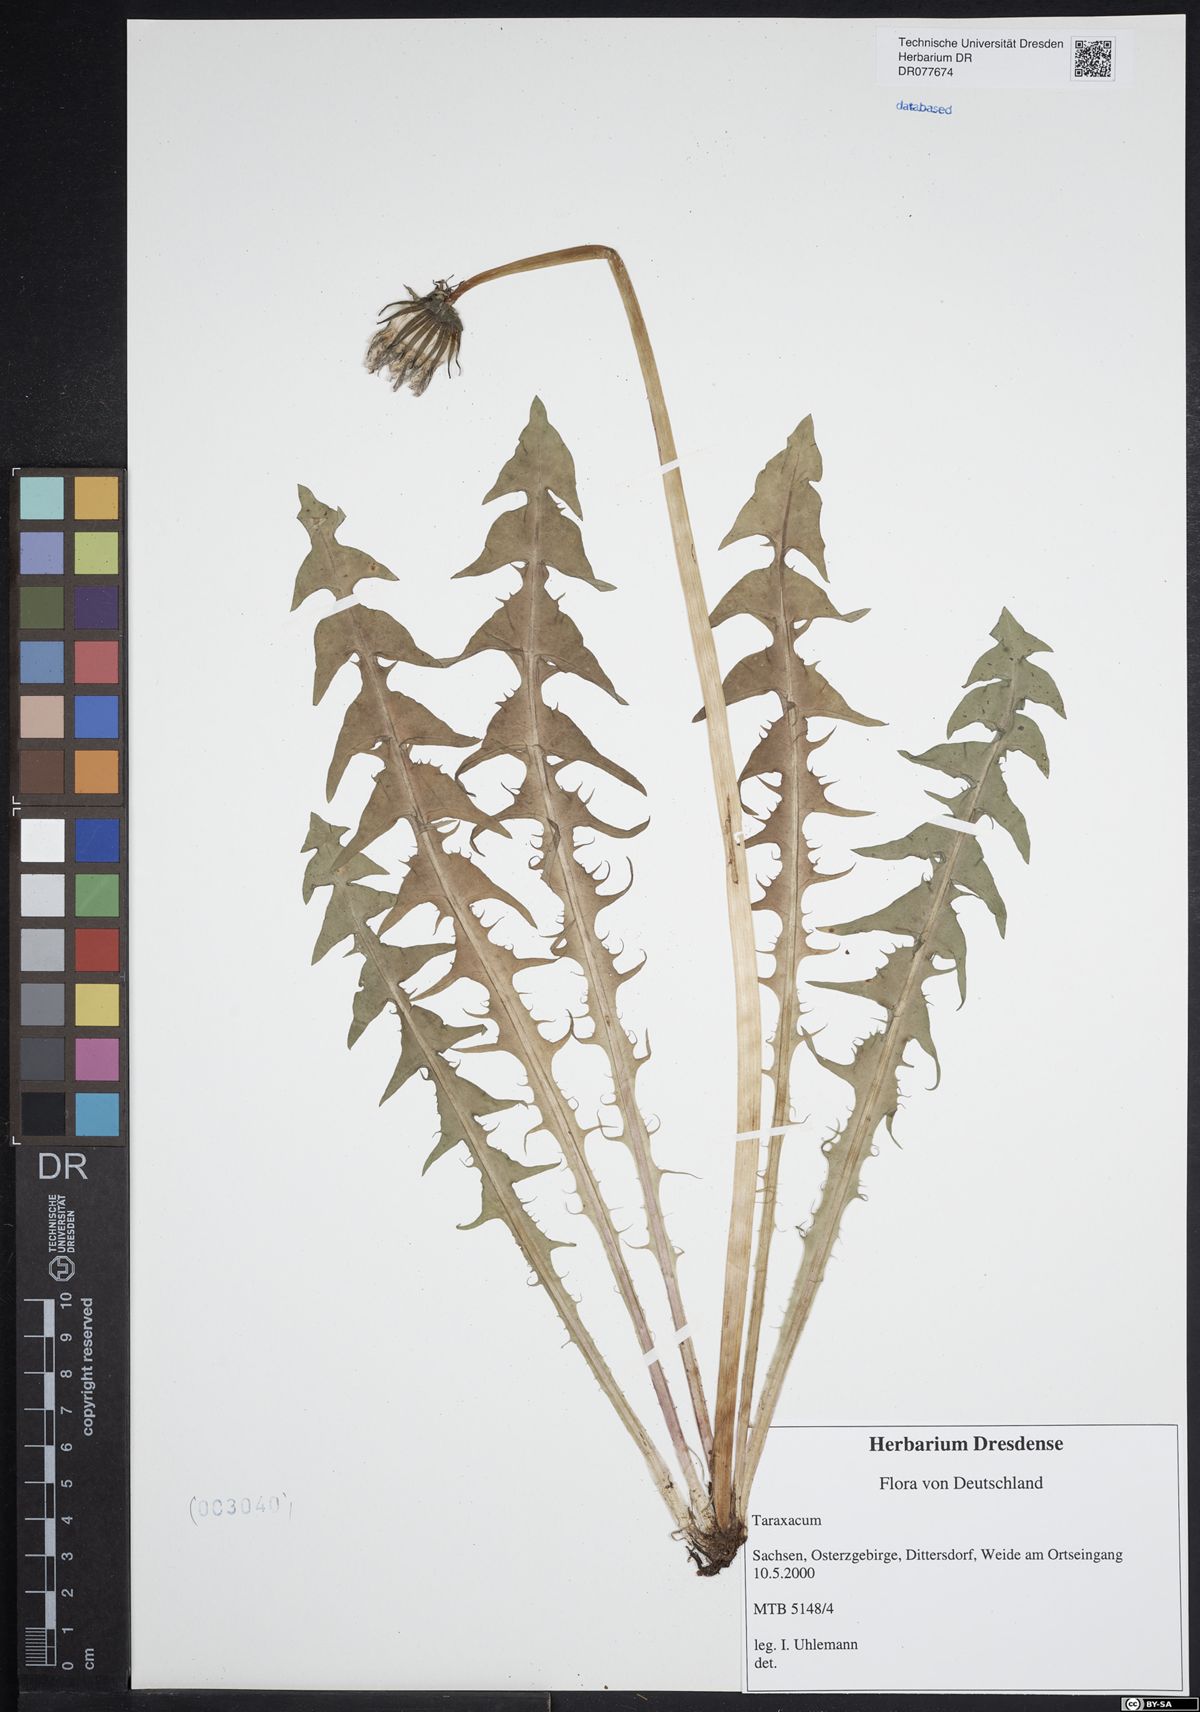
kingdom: Plantae
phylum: Tracheophyta
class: Magnoliopsida
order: Asterales
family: Asteraceae
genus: Taraxacum
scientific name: Taraxacum
